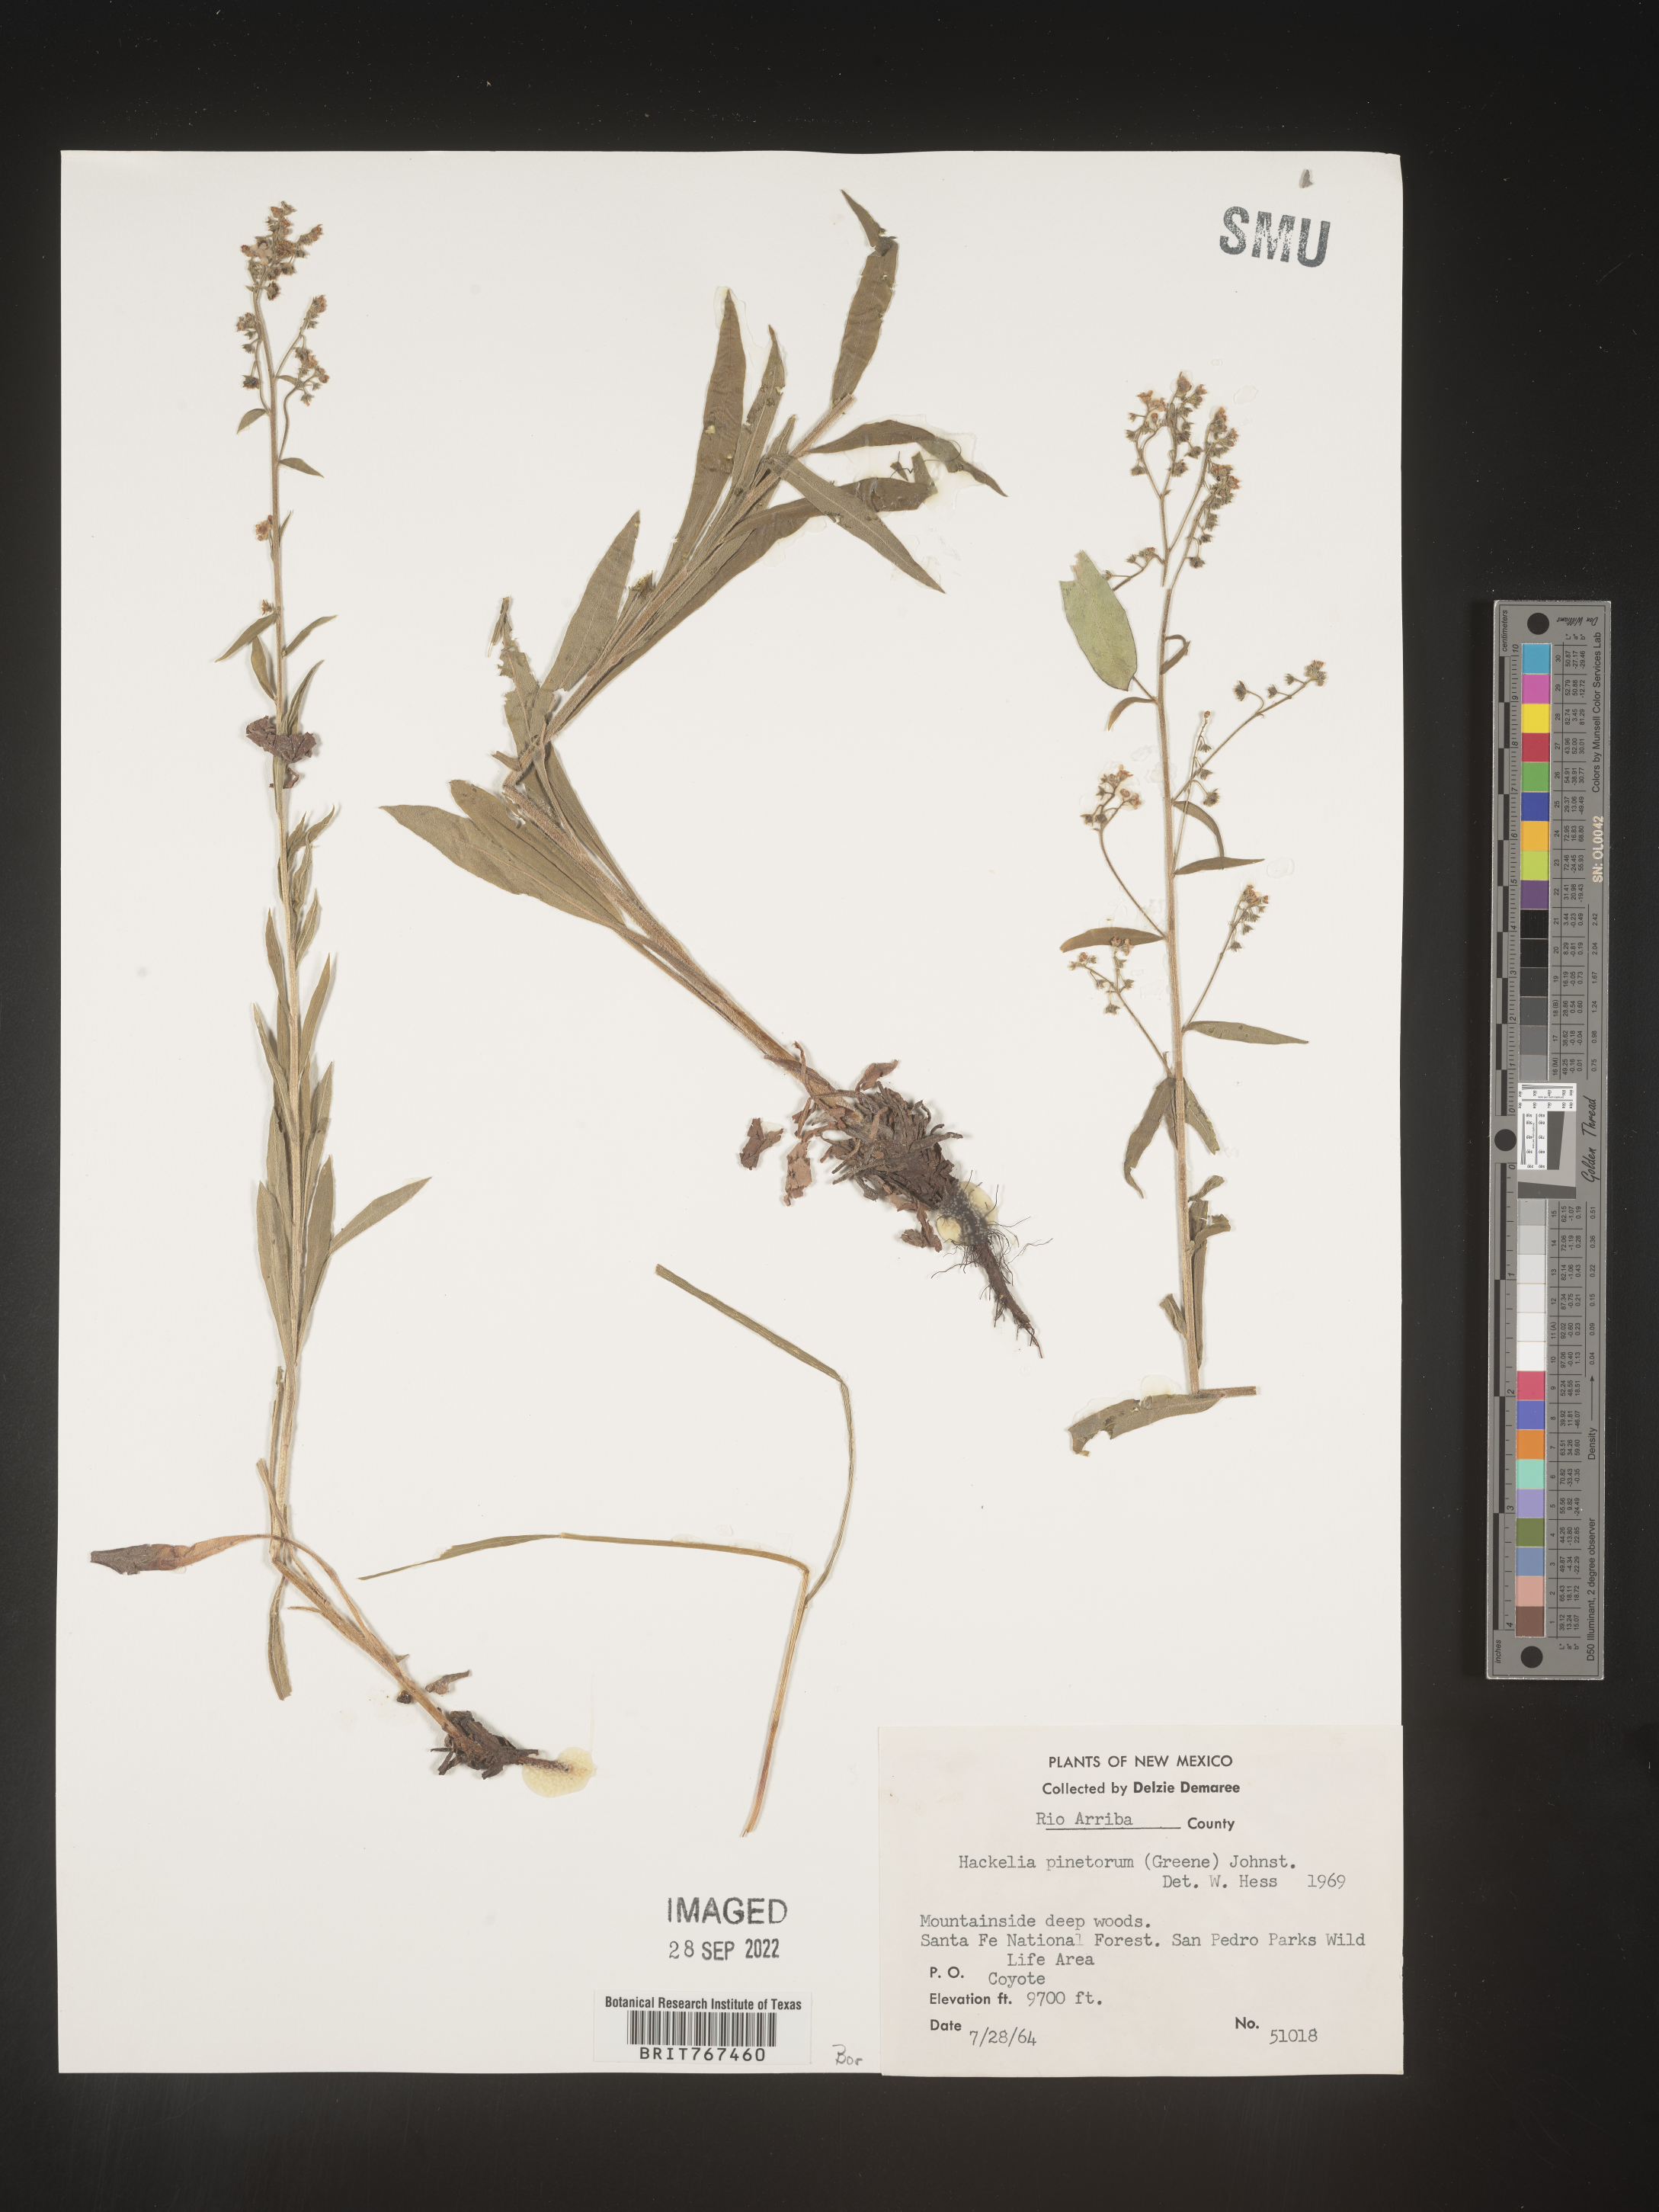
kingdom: Plantae
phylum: Tracheophyta
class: Magnoliopsida
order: Boraginales
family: Boraginaceae
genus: Hackelia
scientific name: Hackelia
